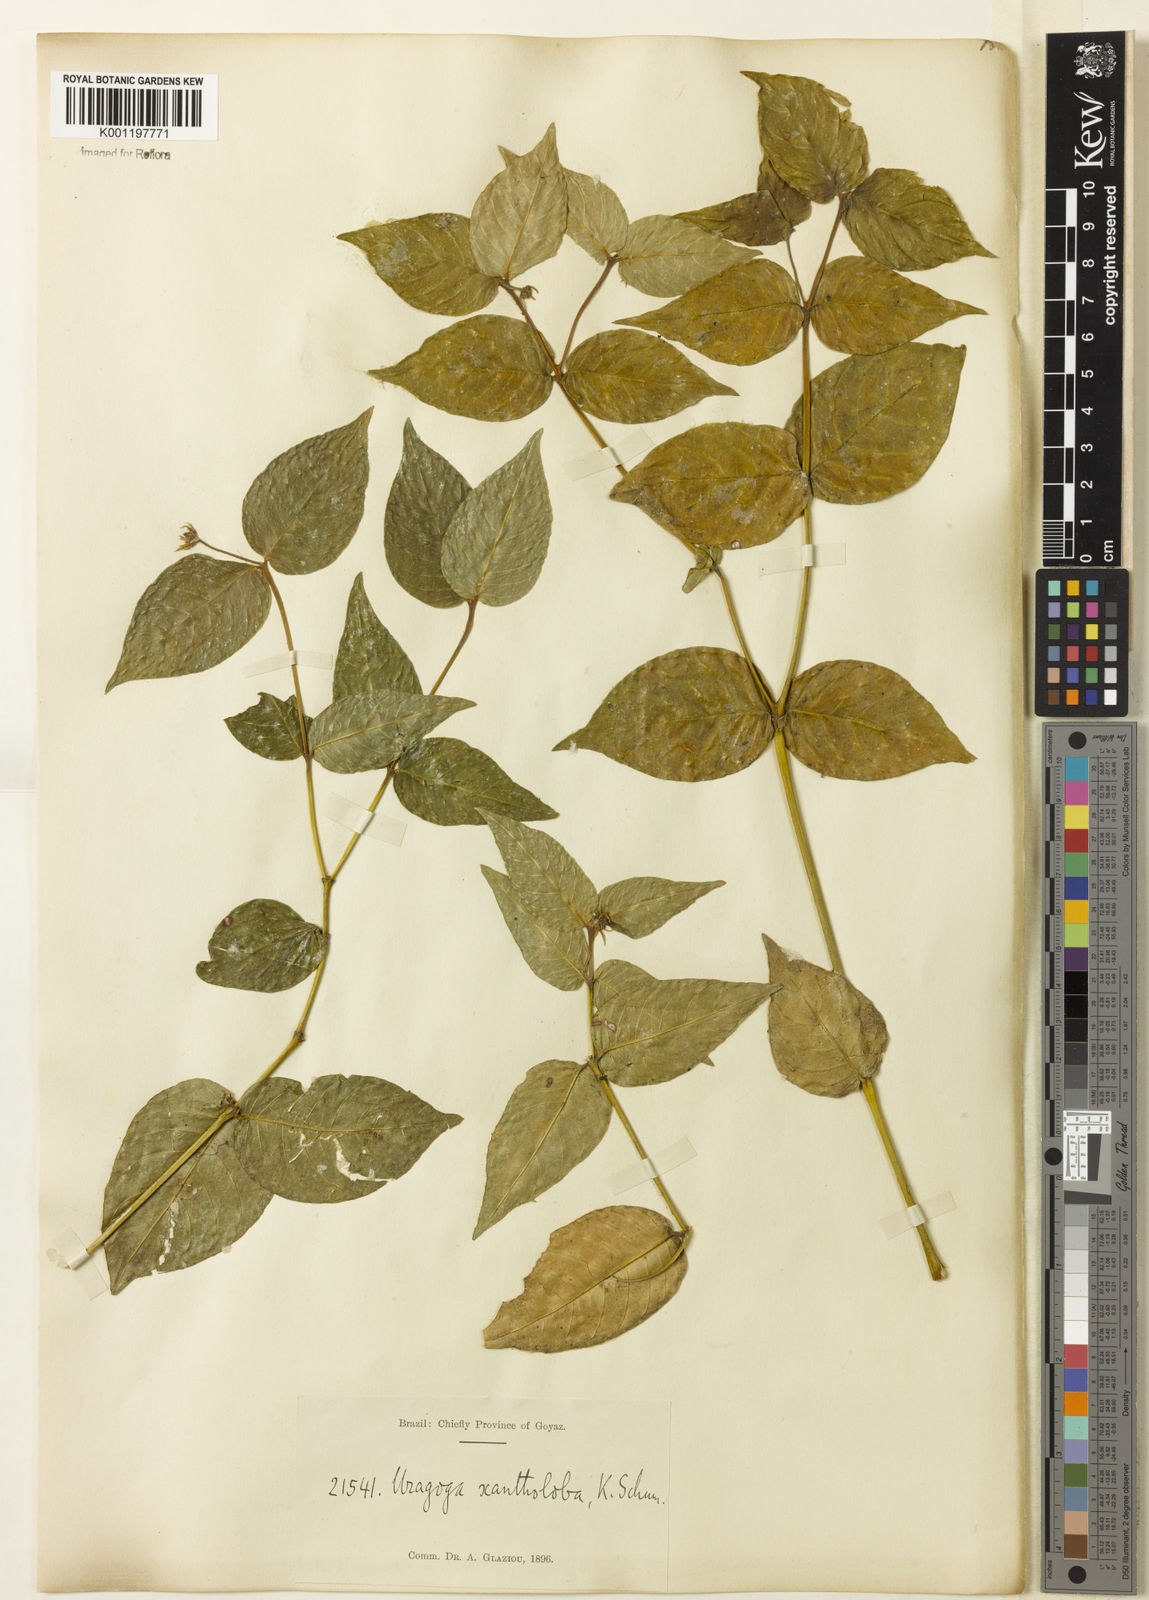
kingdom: Plantae
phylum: Tracheophyta
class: Magnoliopsida
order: Gentianales
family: Rubiaceae
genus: Psychotria
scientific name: Psychotria
